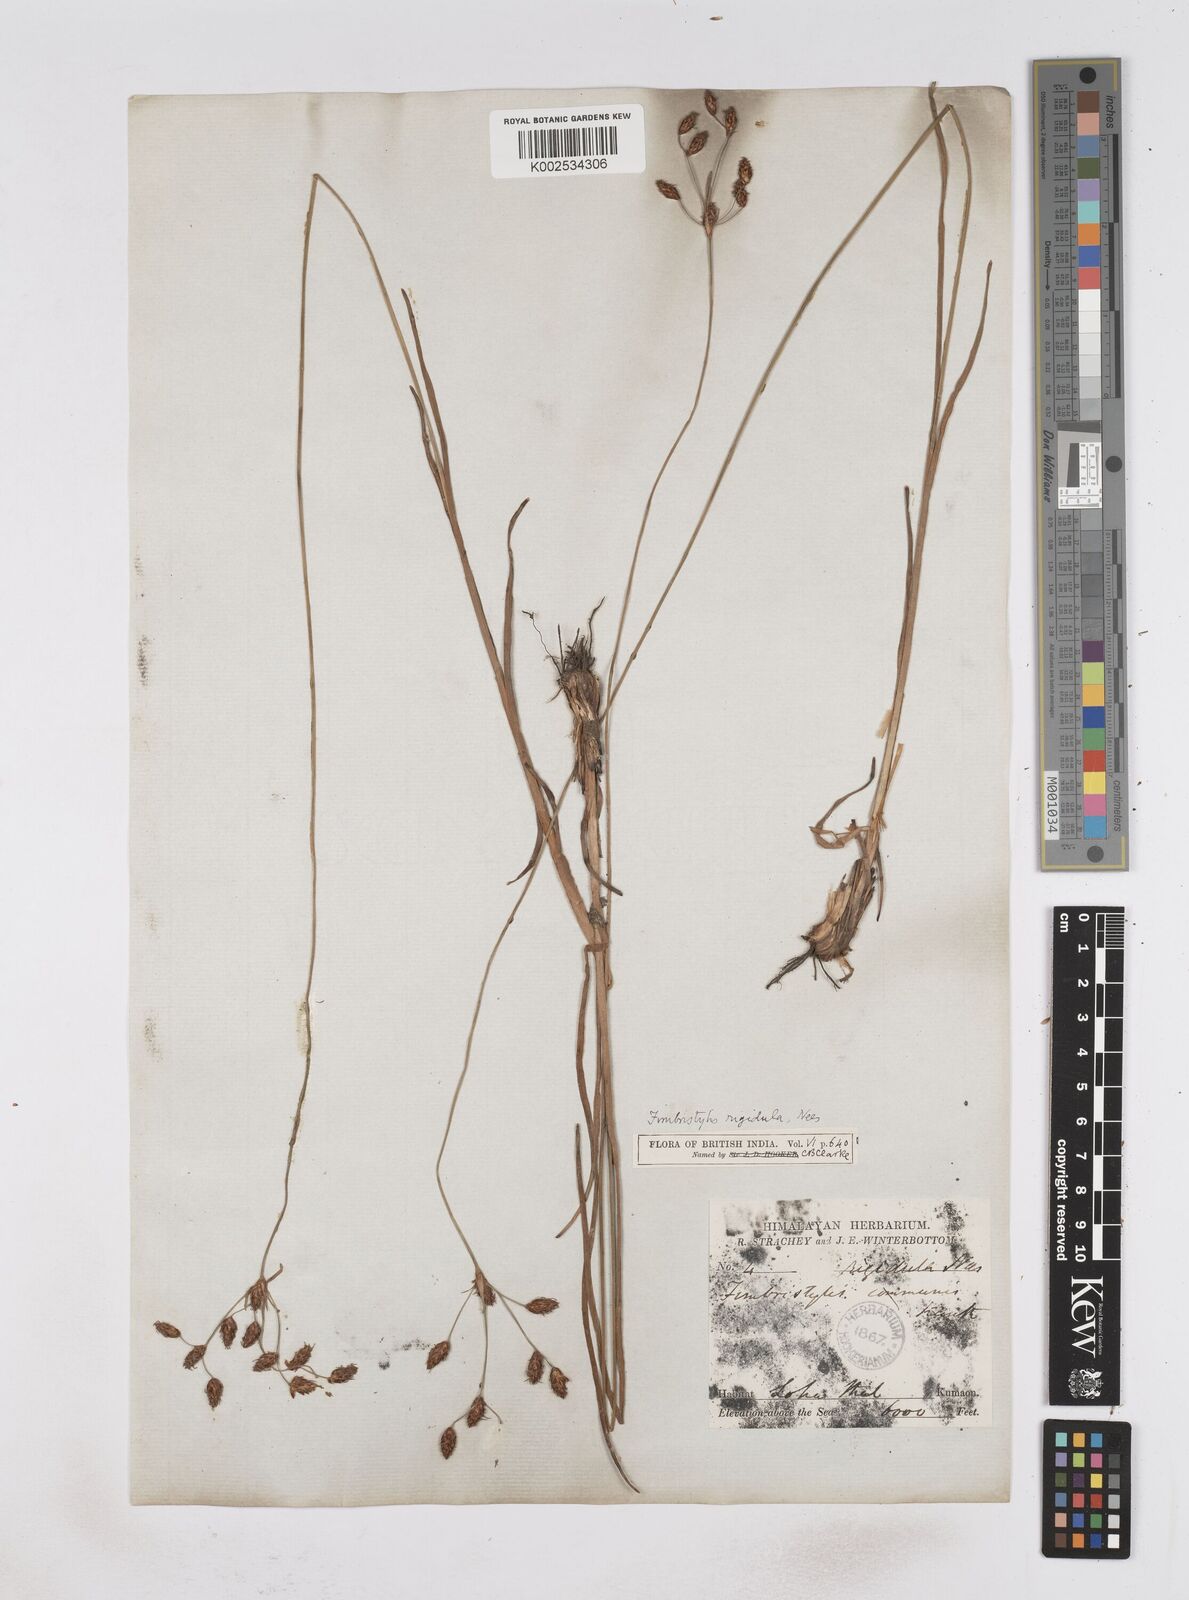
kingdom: Plantae
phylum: Tracheophyta
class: Liliopsida
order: Poales
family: Cyperaceae
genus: Fimbristylis
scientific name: Fimbristylis rigidula
